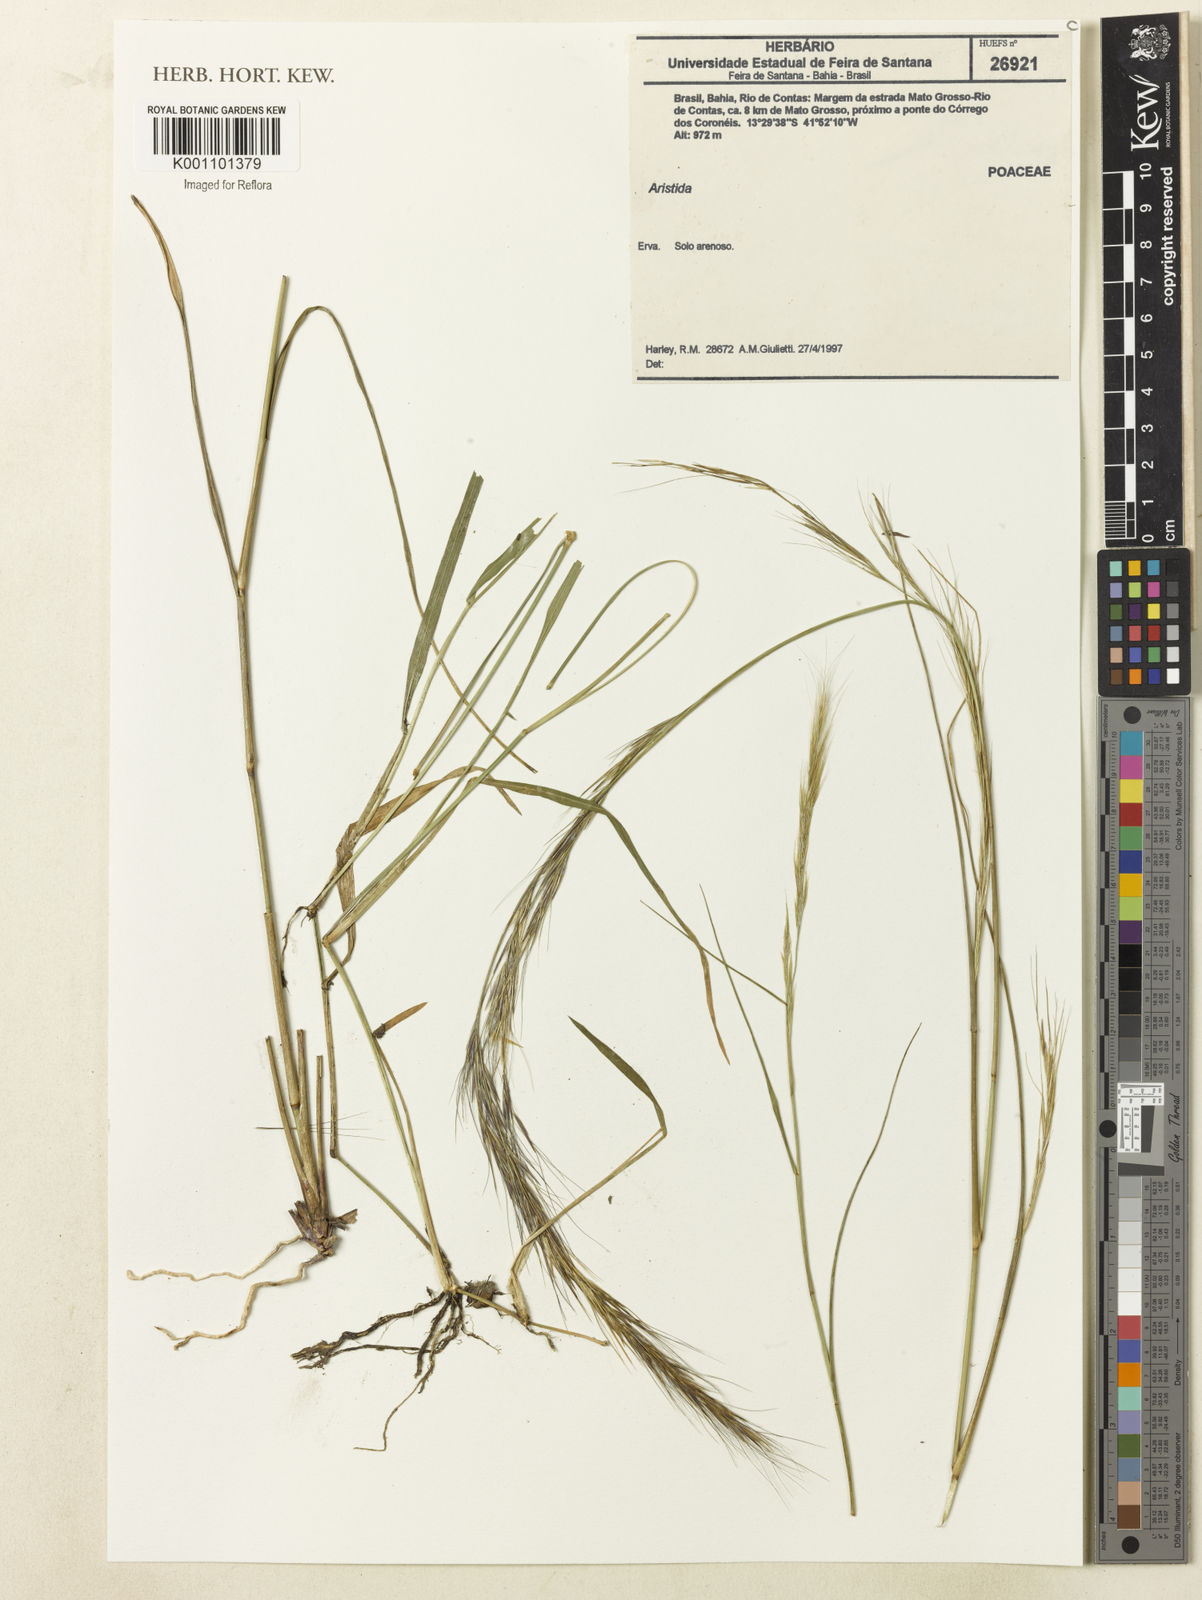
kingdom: Plantae
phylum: Tracheophyta
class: Liliopsida
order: Poales
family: Poaceae
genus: Aristida
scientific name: Aristida
